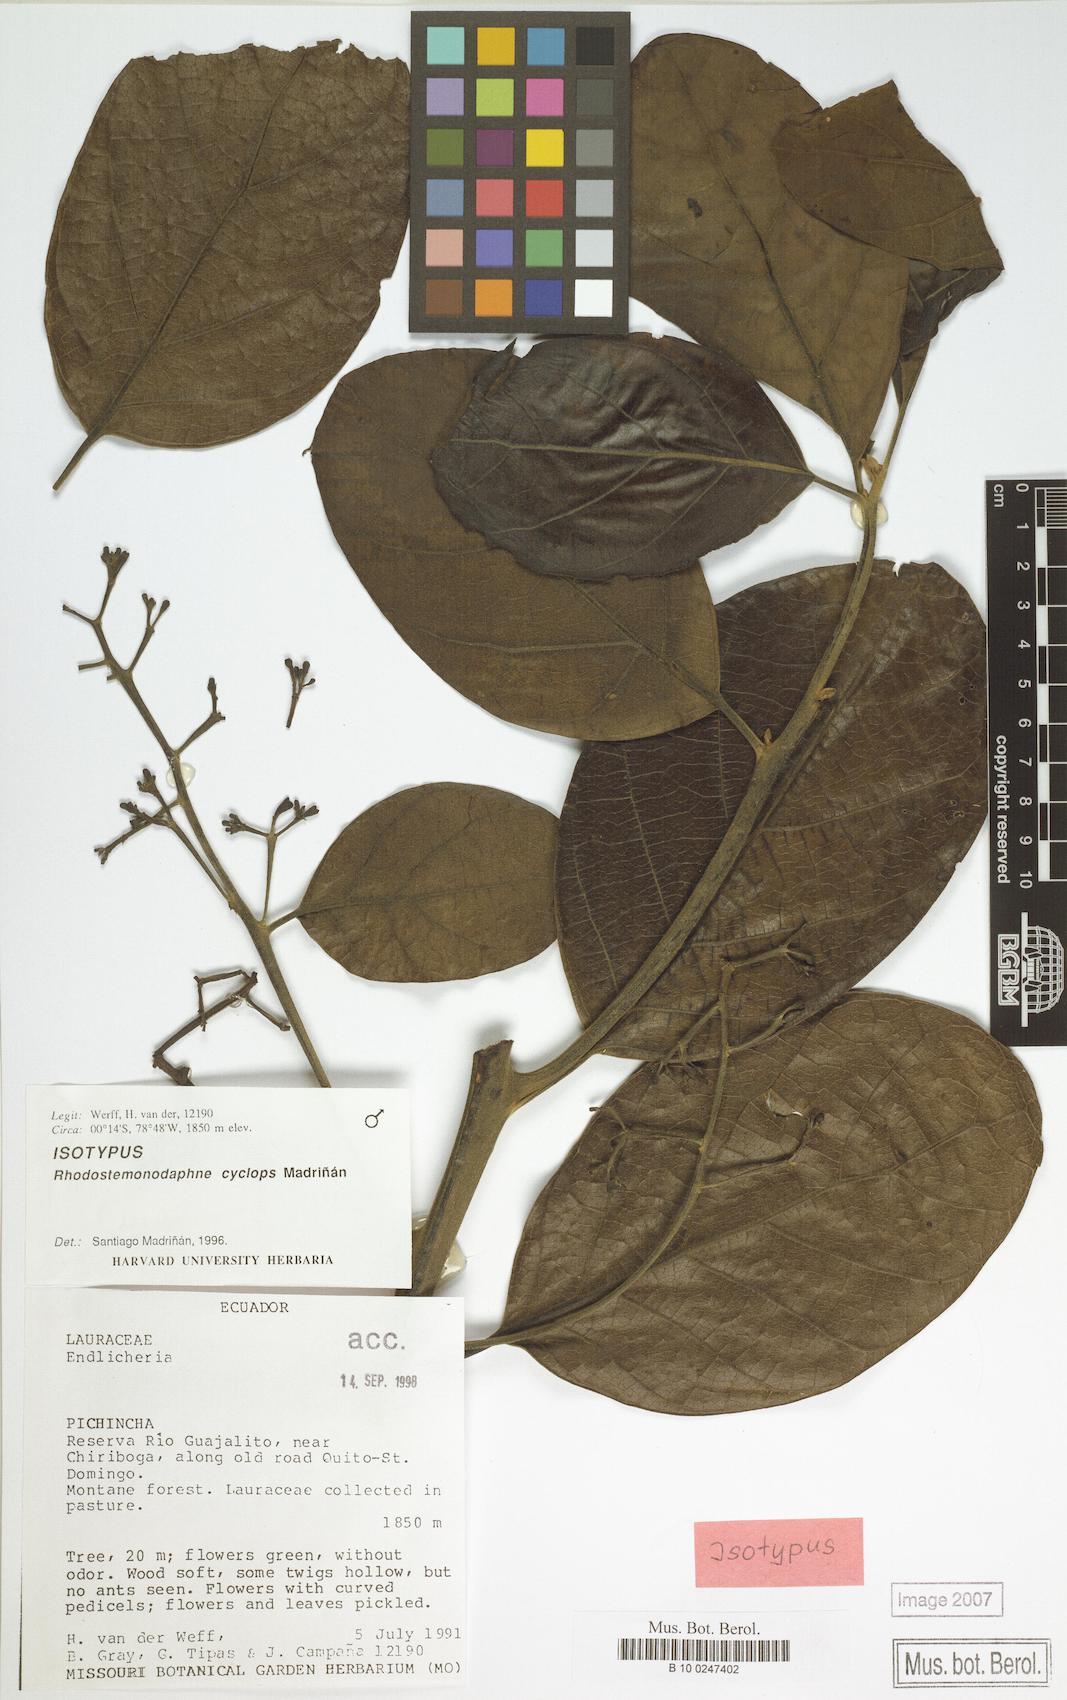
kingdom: Plantae
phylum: Tracheophyta
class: Magnoliopsida
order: Laurales
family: Lauraceae
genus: Rhodostemonodaphne
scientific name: Rhodostemonodaphne cyclops
